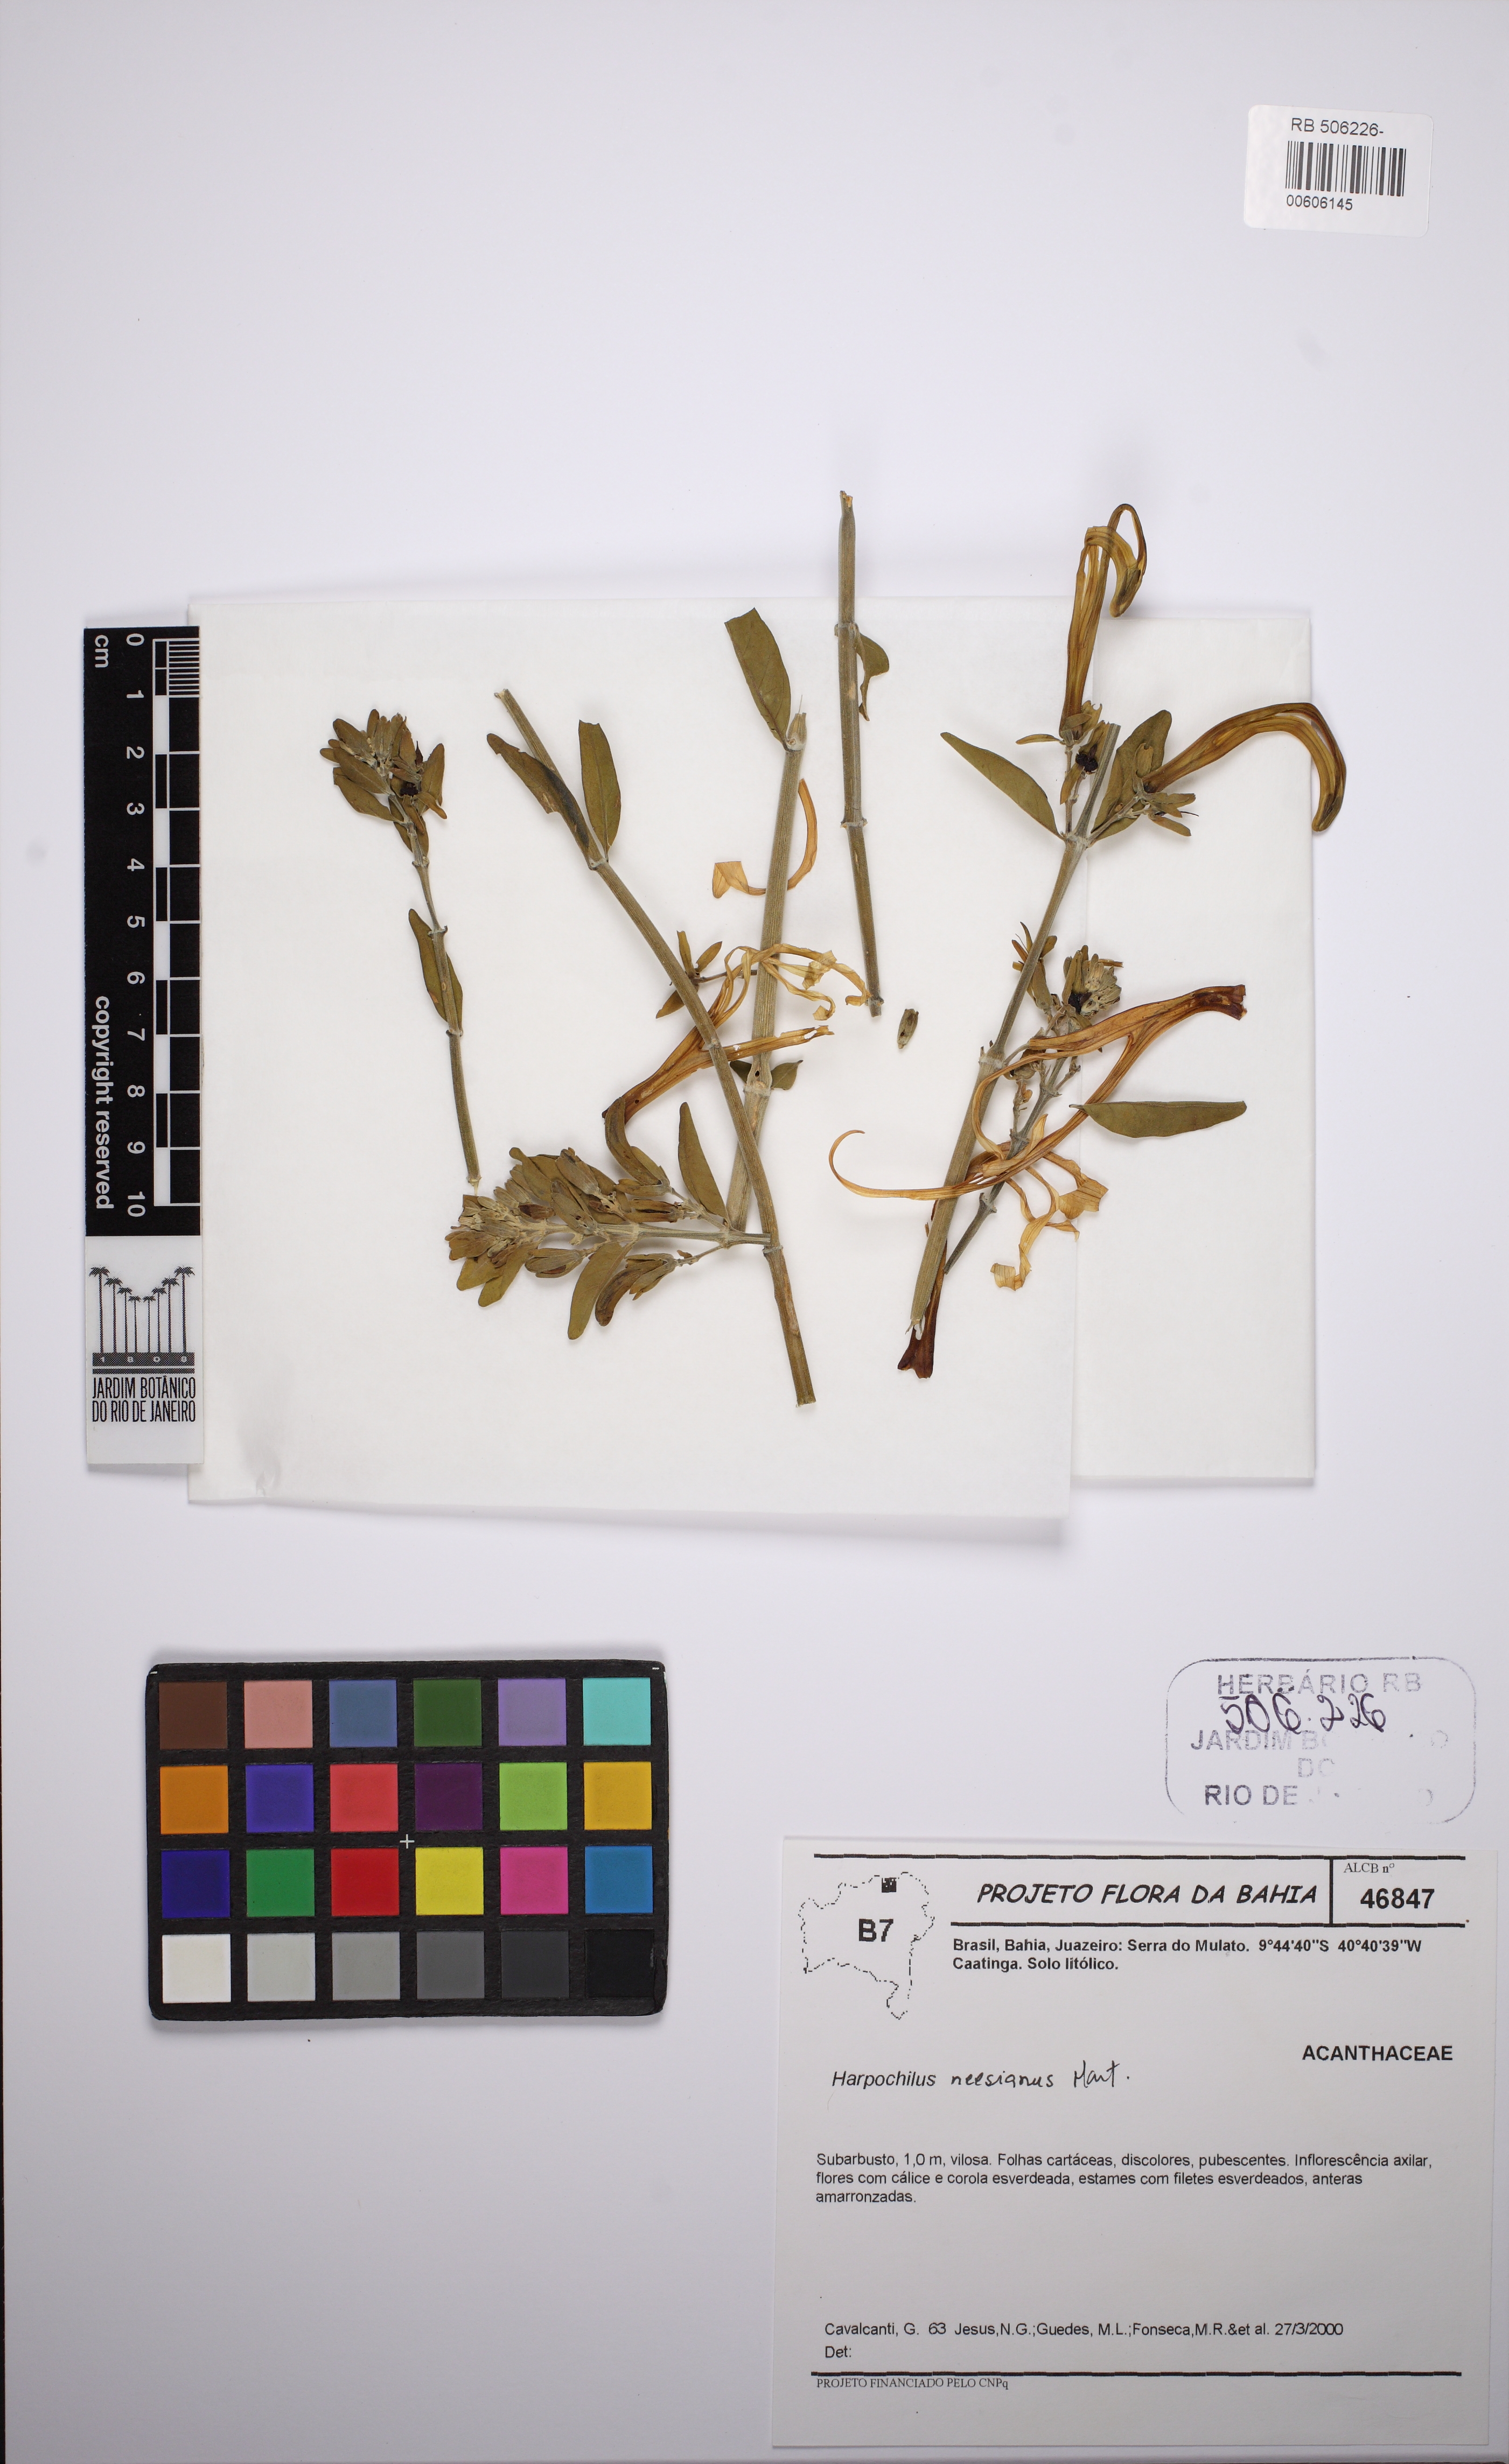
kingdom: Plantae
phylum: Tracheophyta
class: Magnoliopsida
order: Lamiales
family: Acanthaceae
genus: Harpochilus
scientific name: Harpochilus neesianus
